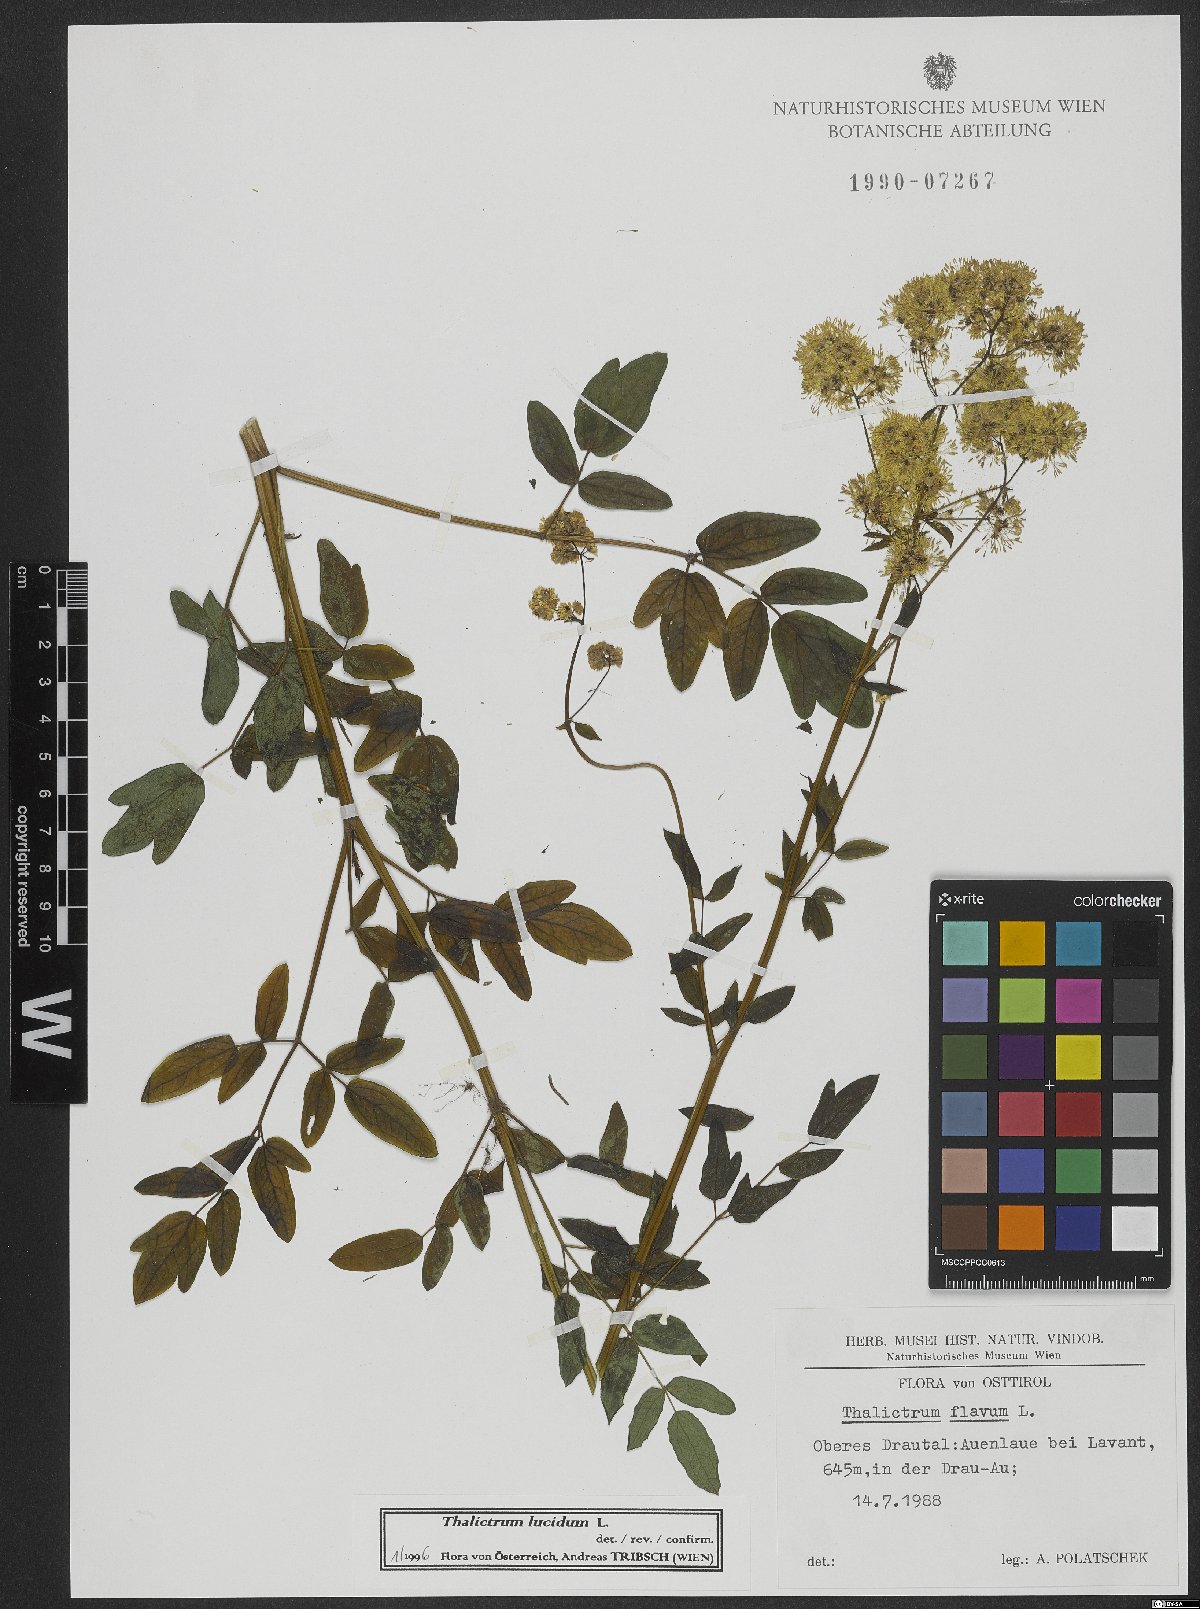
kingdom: Plantae
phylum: Tracheophyta
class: Magnoliopsida
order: Ranunculales
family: Ranunculaceae
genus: Thalictrum
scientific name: Thalictrum lucidum
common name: Shining meadow-rue
